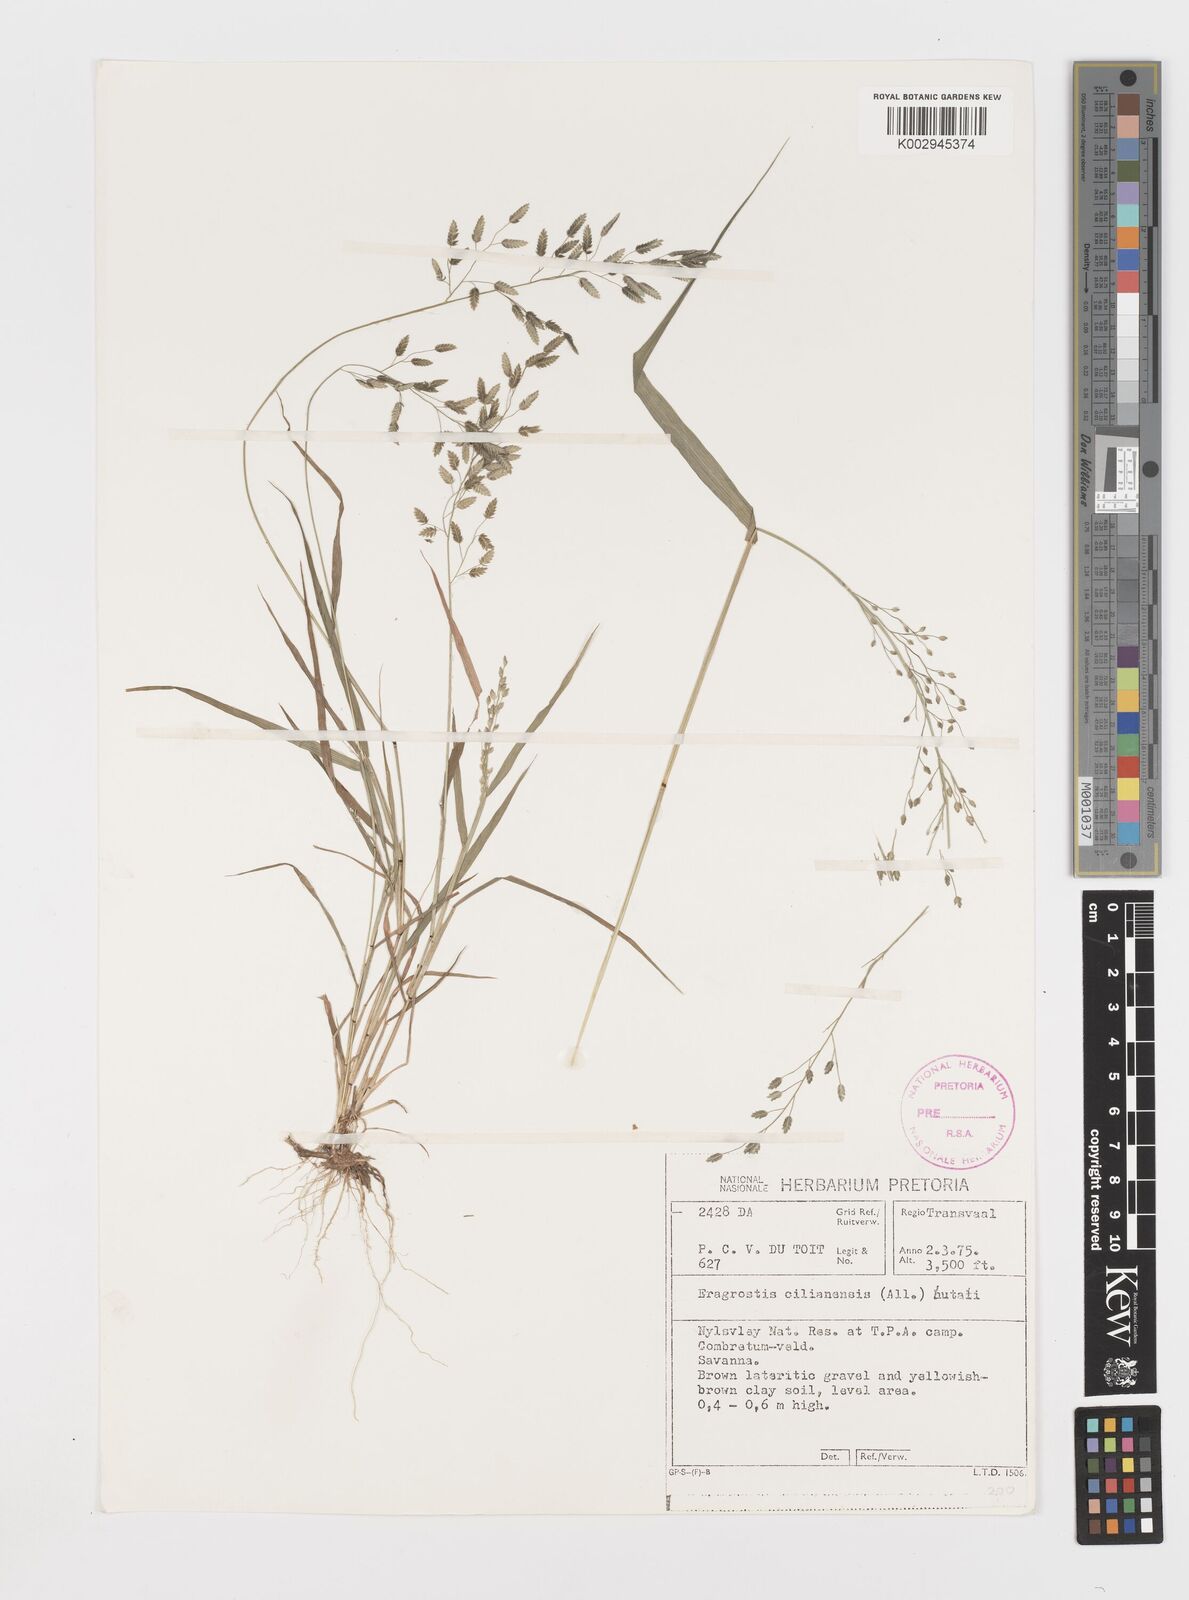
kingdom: Plantae
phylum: Tracheophyta
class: Liliopsida
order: Poales
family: Poaceae
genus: Eragrostis
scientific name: Eragrostis cilianensis
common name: Stinkgrass
